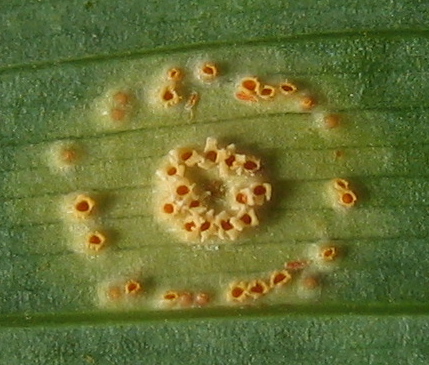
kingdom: Fungi
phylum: Basidiomycota
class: Pucciniomycetes
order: Pucciniales
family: Pucciniaceae
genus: Puccinia
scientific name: Puccinia sessilis
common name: Arum rust
